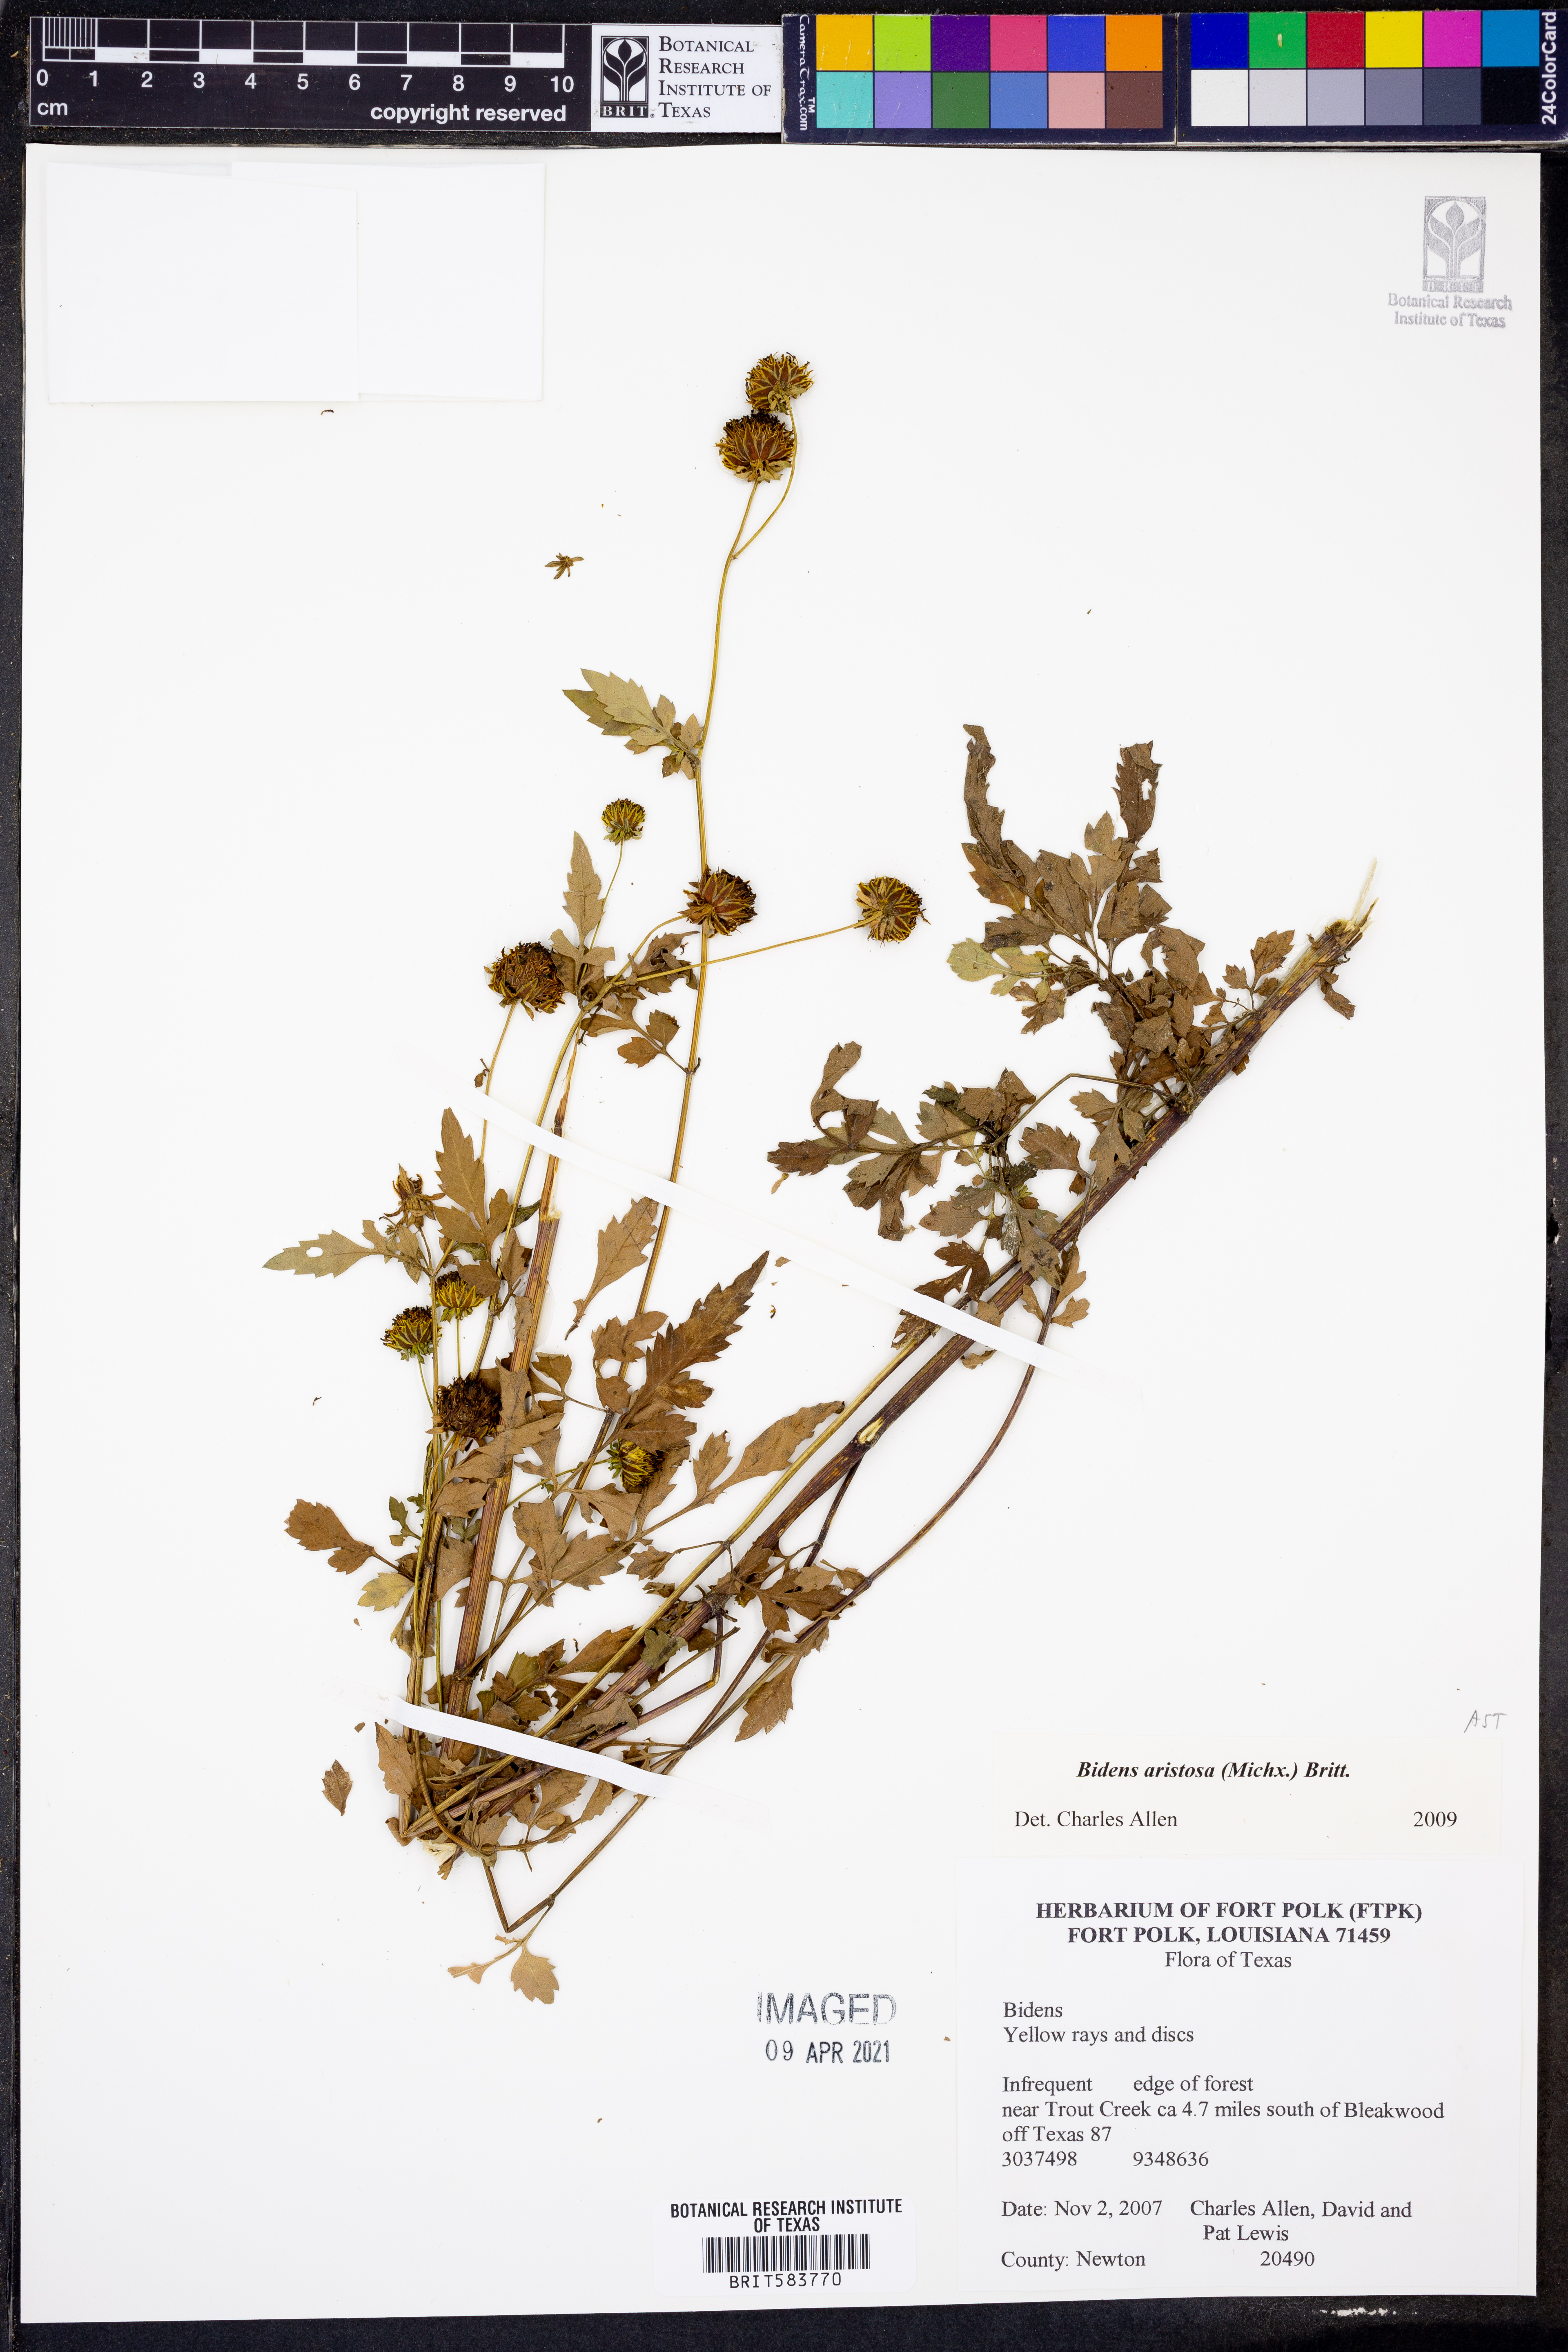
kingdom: Plantae
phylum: Tracheophyta
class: Magnoliopsida
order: Asterales
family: Asteraceae
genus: Bidens
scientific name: Bidens aristosa
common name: Western tickseed
